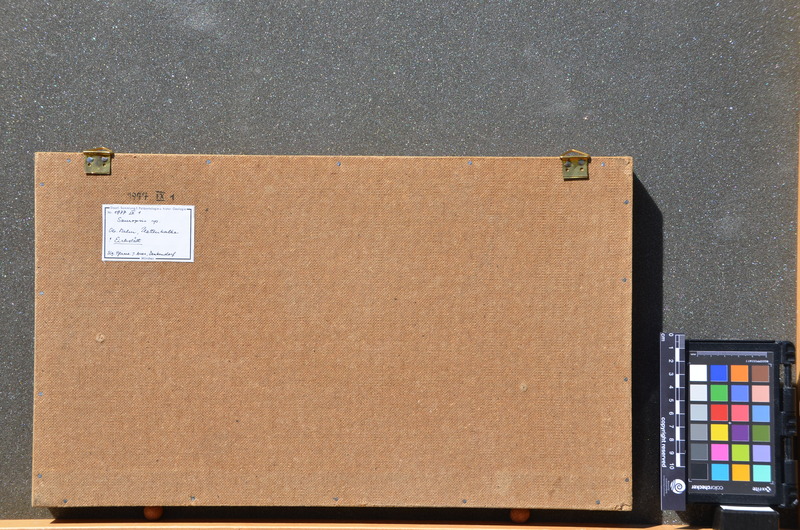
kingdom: Animalia
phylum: Chordata
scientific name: Chordata
